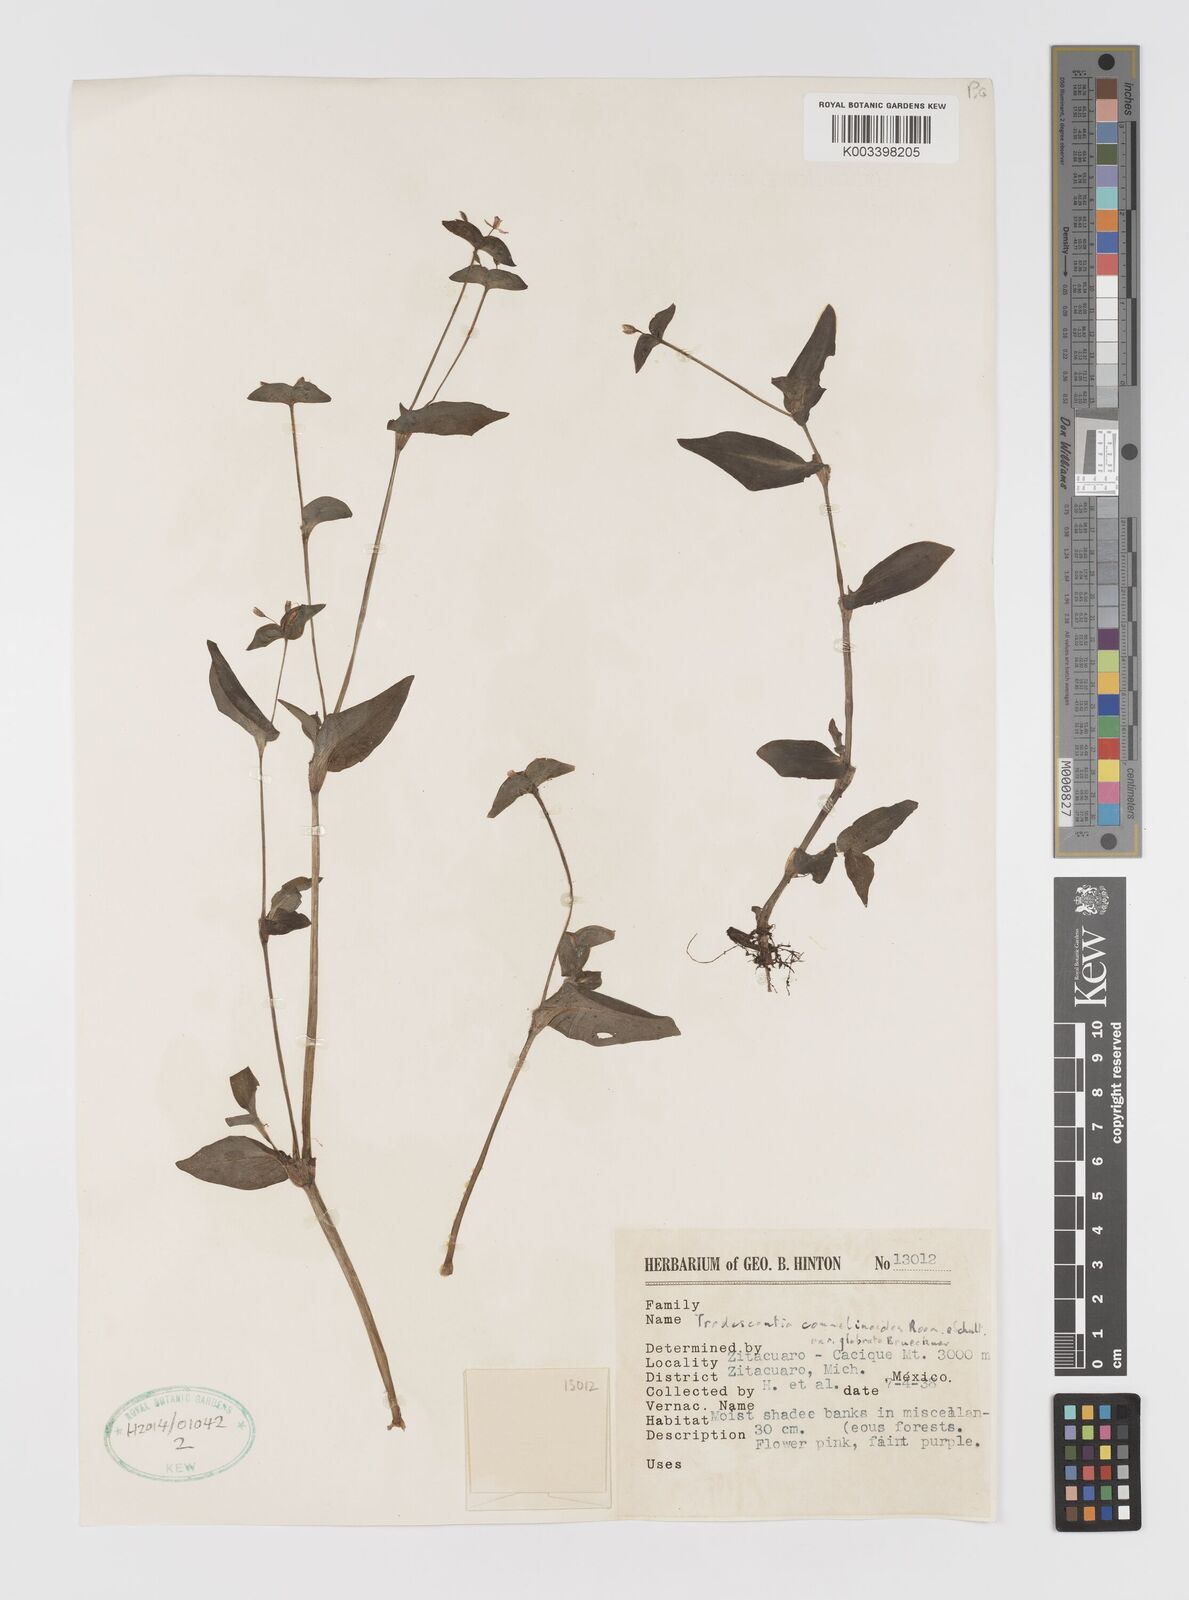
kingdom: Plantae
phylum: Tracheophyta
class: Liliopsida
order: Commelinales
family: Commelinaceae
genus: Tradescantia
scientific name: Tradescantia commelinoides
